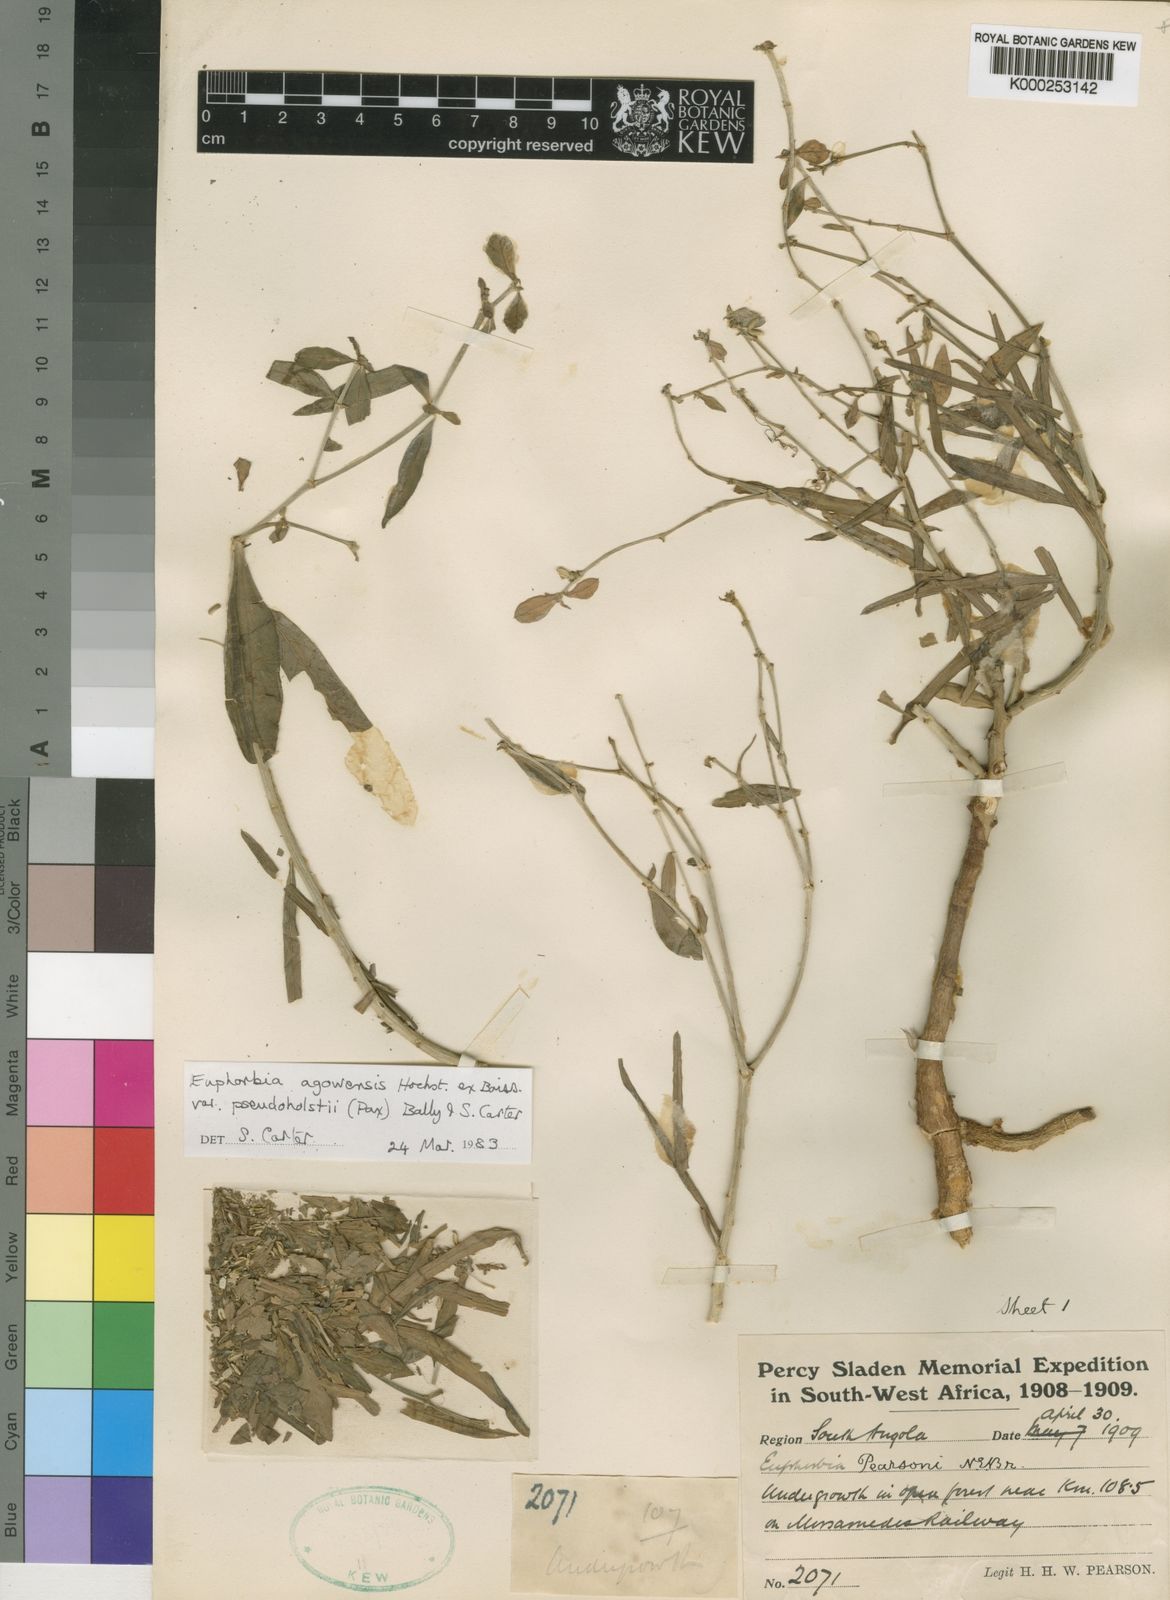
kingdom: Plantae
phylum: Tracheophyta
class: Magnoliopsida
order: Malpighiales
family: Euphorbiaceae
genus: Euphorbia
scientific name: Euphorbia agowensis
